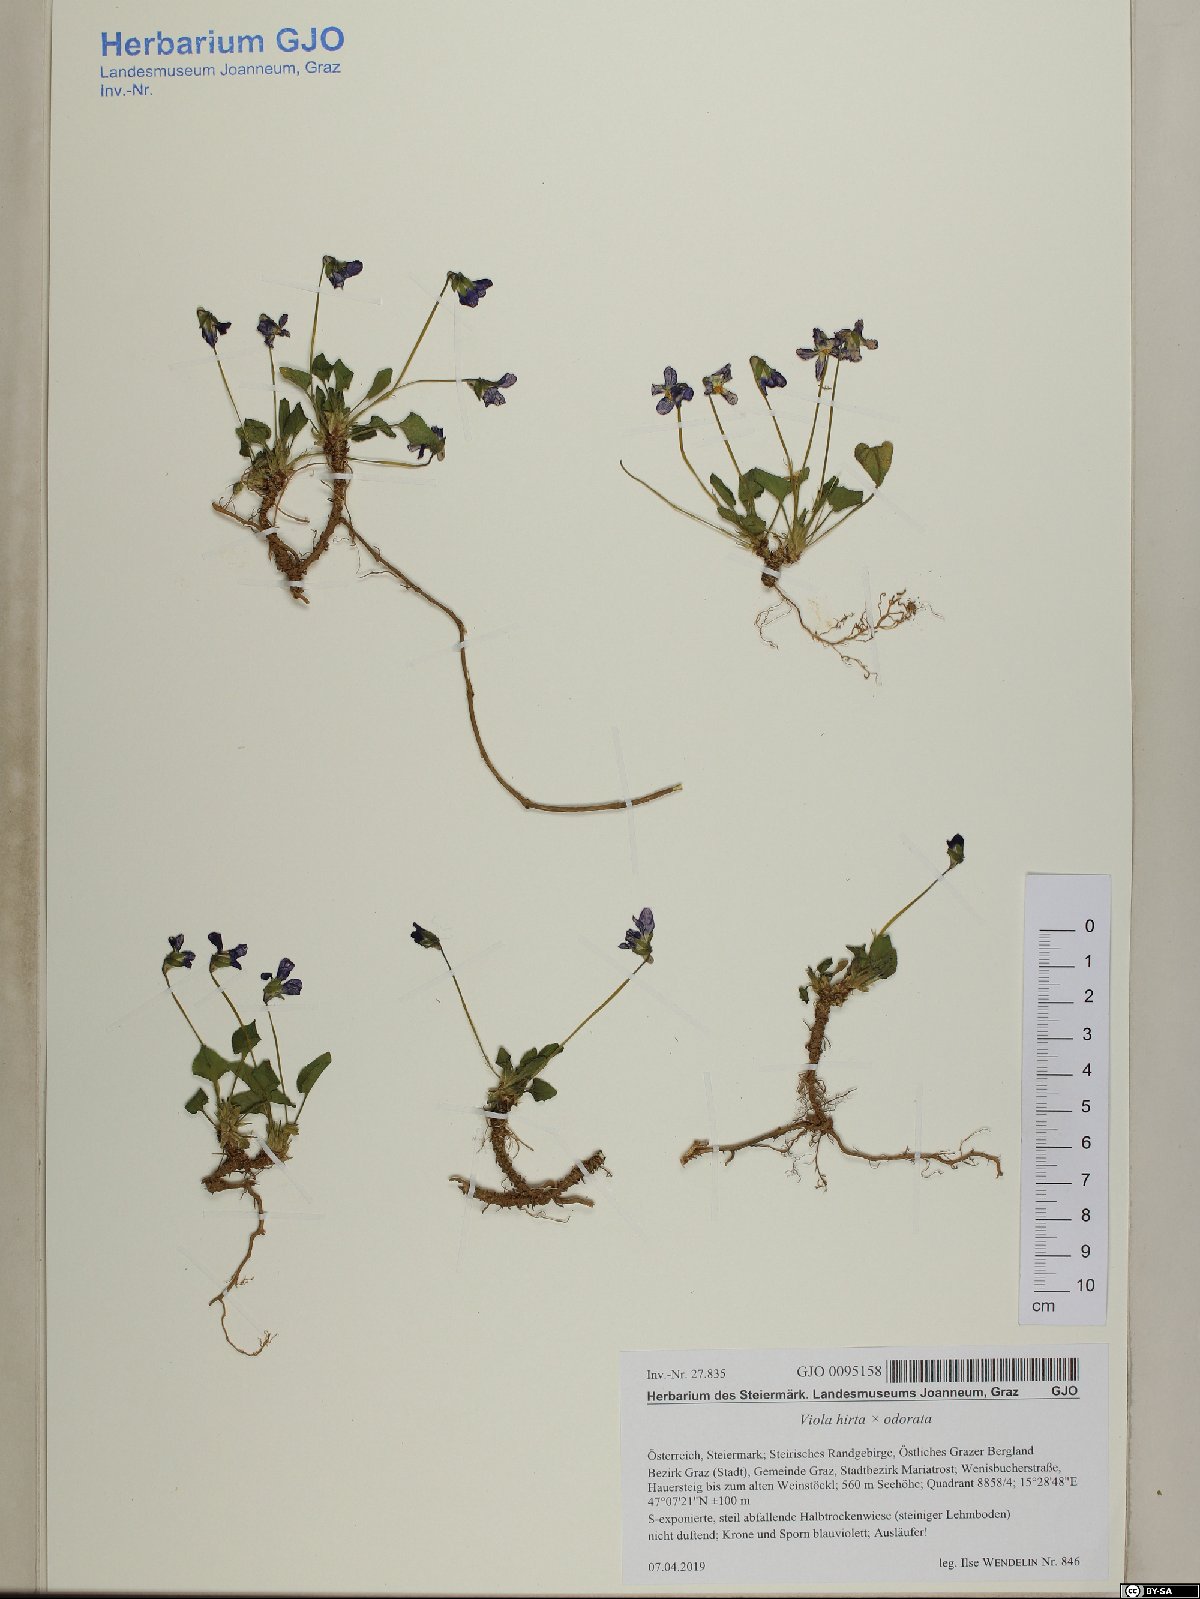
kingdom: Plantae
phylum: Tracheophyta
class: Magnoliopsida
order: Malpighiales
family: Violaceae
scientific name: Violaceae
